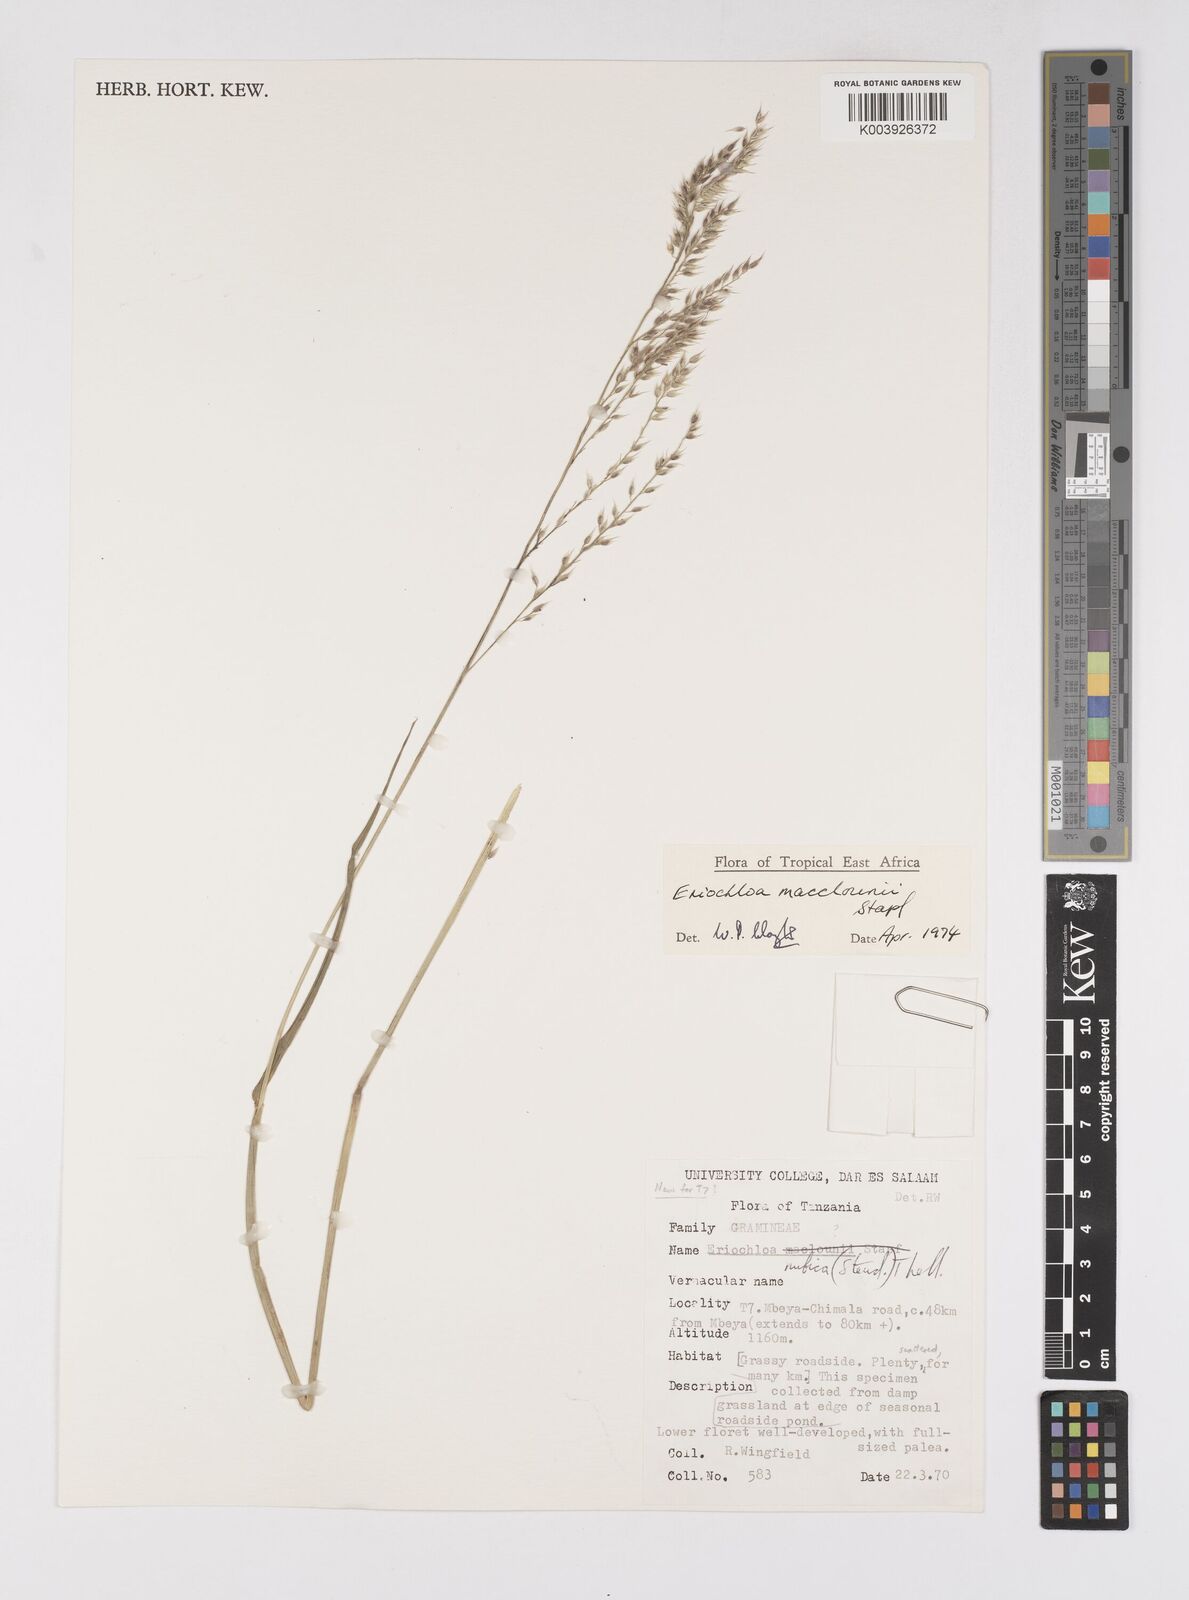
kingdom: Plantae
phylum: Tracheophyta
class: Liliopsida
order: Poales
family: Poaceae
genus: Eriochloa
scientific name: Eriochloa macclounii
